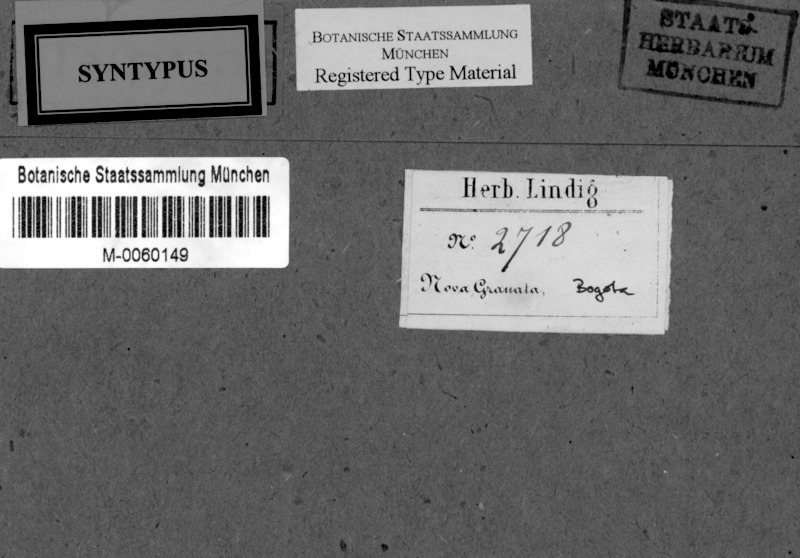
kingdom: Fungi
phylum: Ascomycota
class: Lecanoromycetes
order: Ostropales
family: Graphidaceae
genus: Sarcographa
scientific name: Sarcographa intricans
